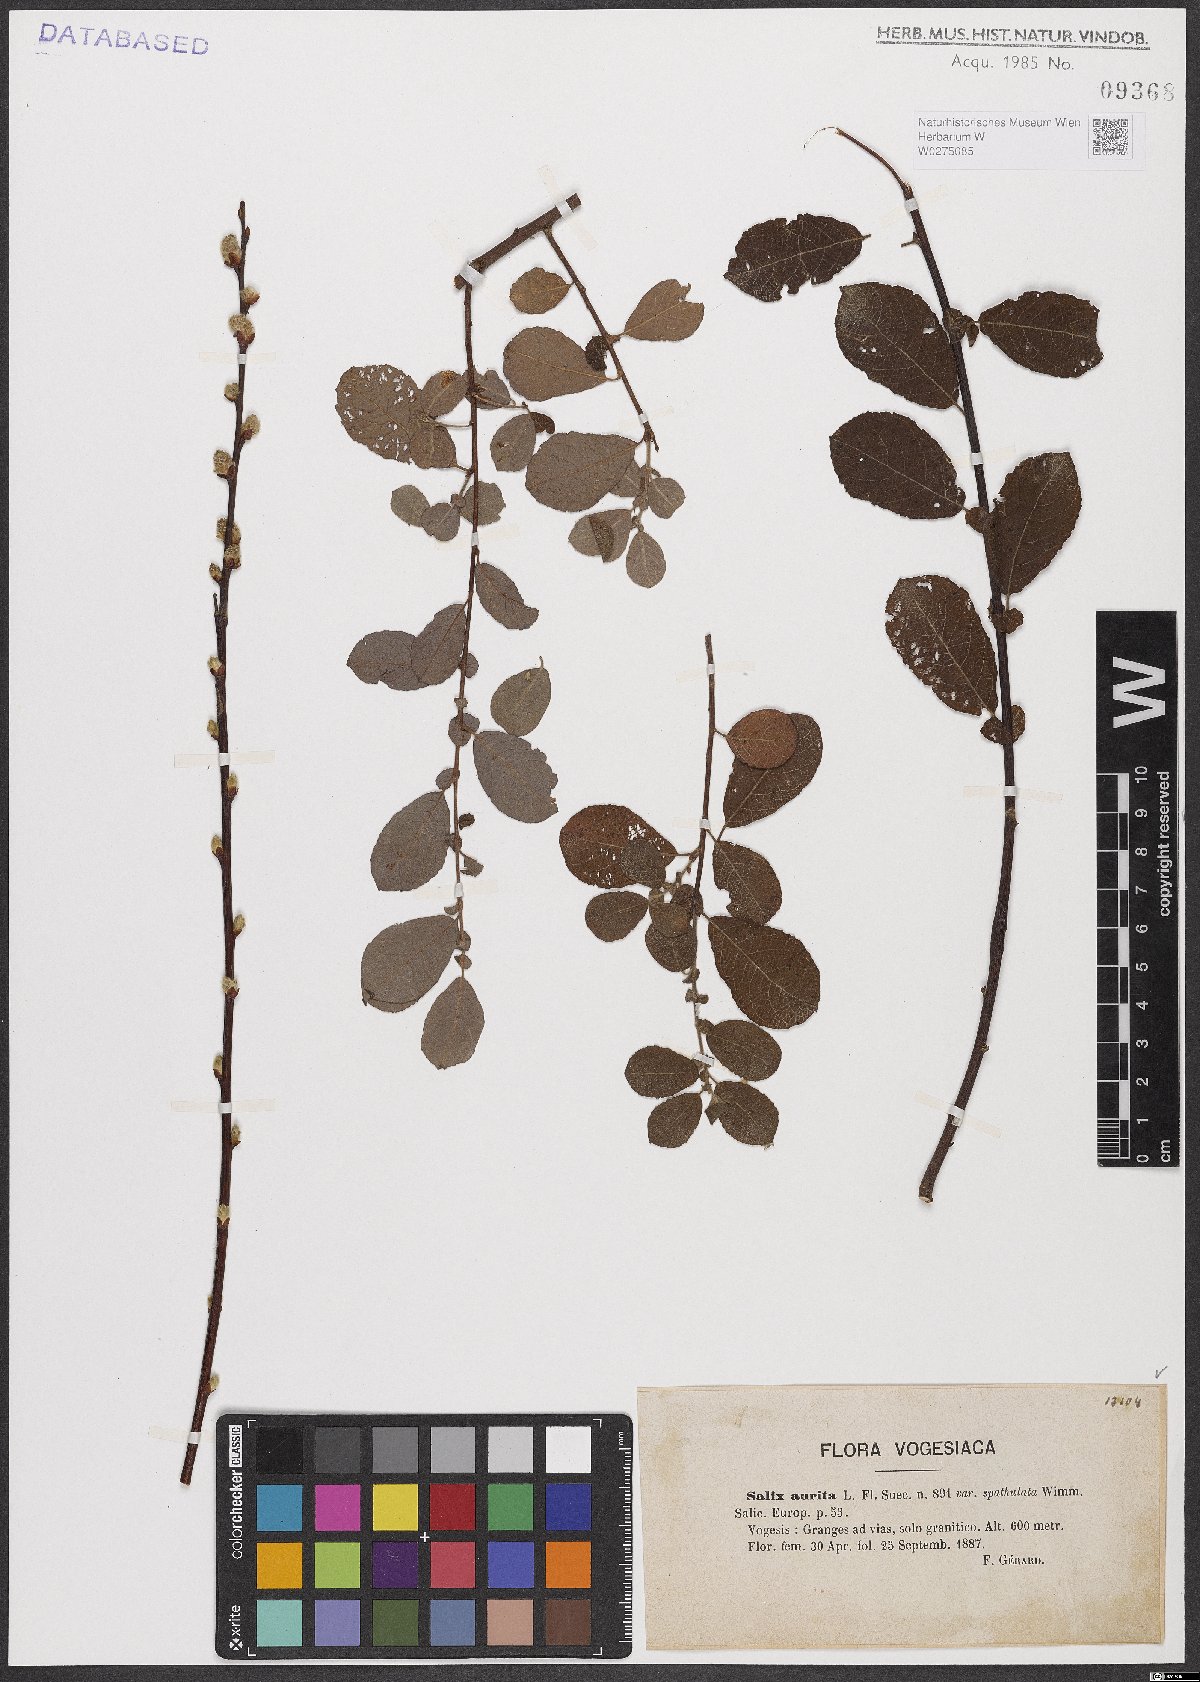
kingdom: Plantae
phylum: Tracheophyta
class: Magnoliopsida
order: Malpighiales
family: Salicaceae
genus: Salix
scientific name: Salix aurita
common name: Eared willow
